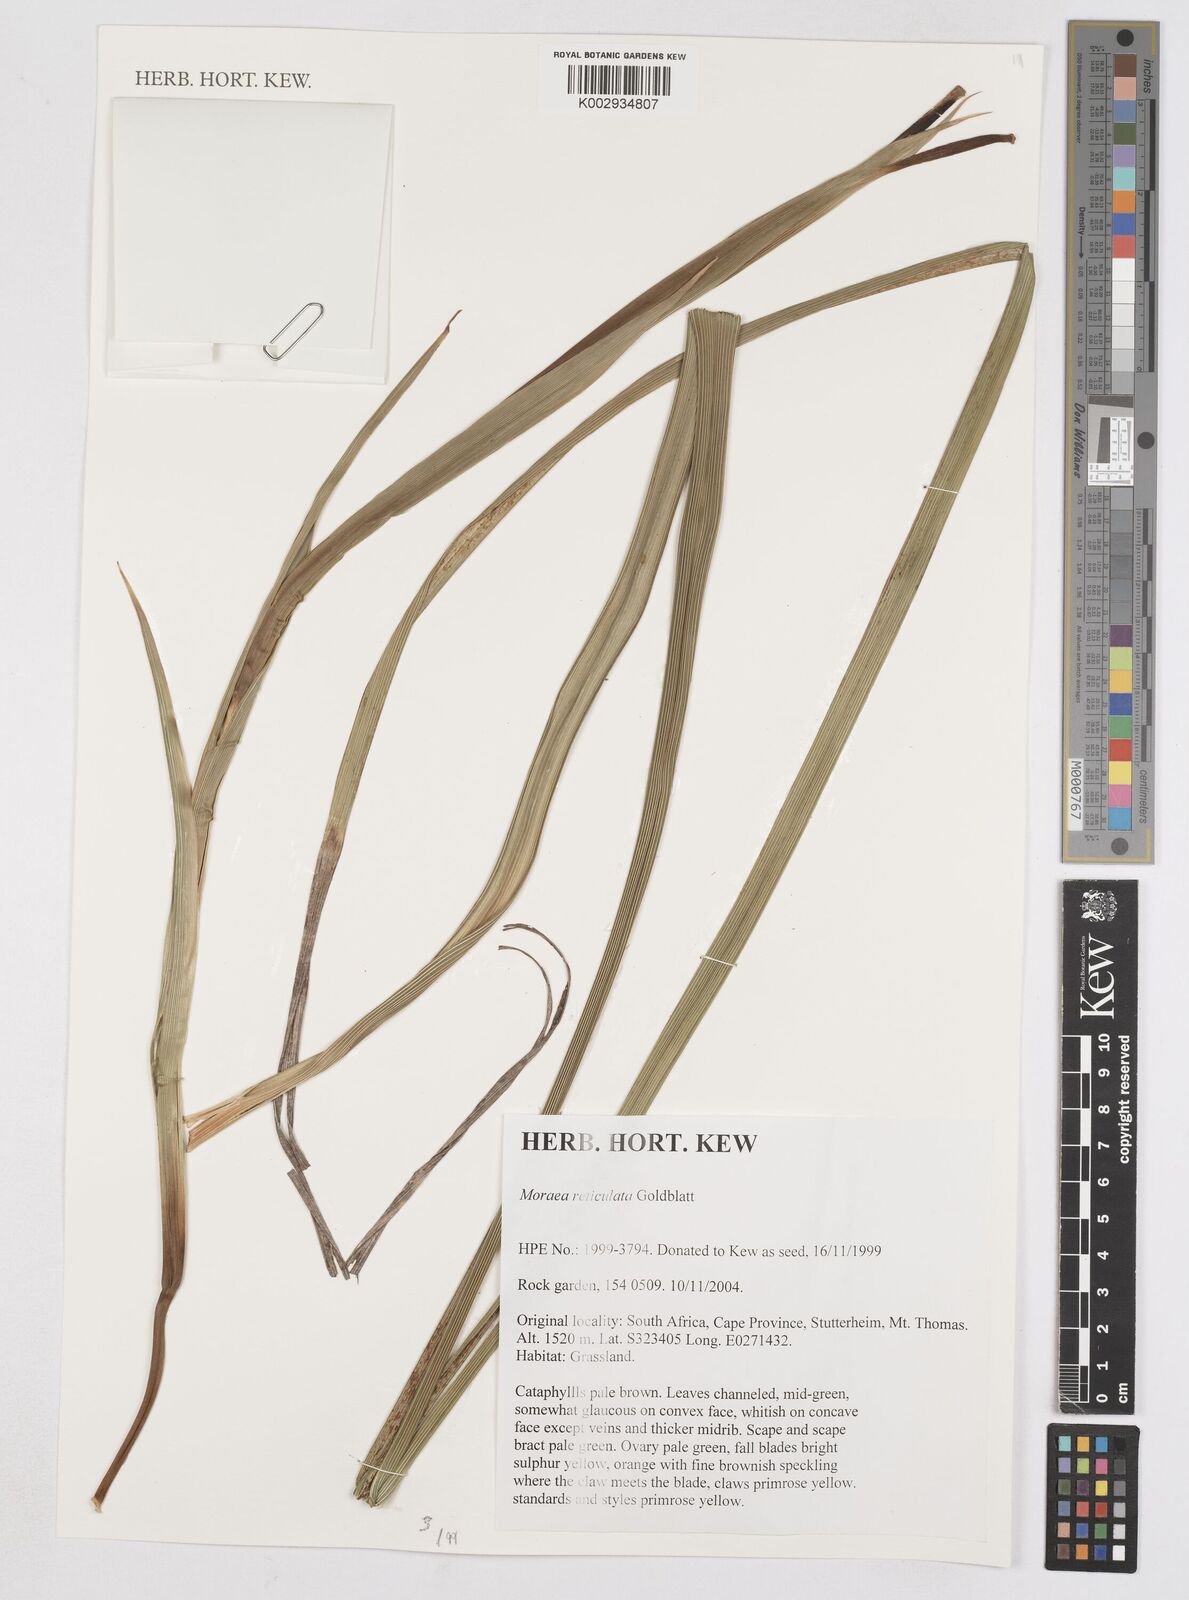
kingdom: Plantae
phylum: Tracheophyta
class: Liliopsida
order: Asparagales
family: Iridaceae
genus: Moraea
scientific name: Moraea reticulata
